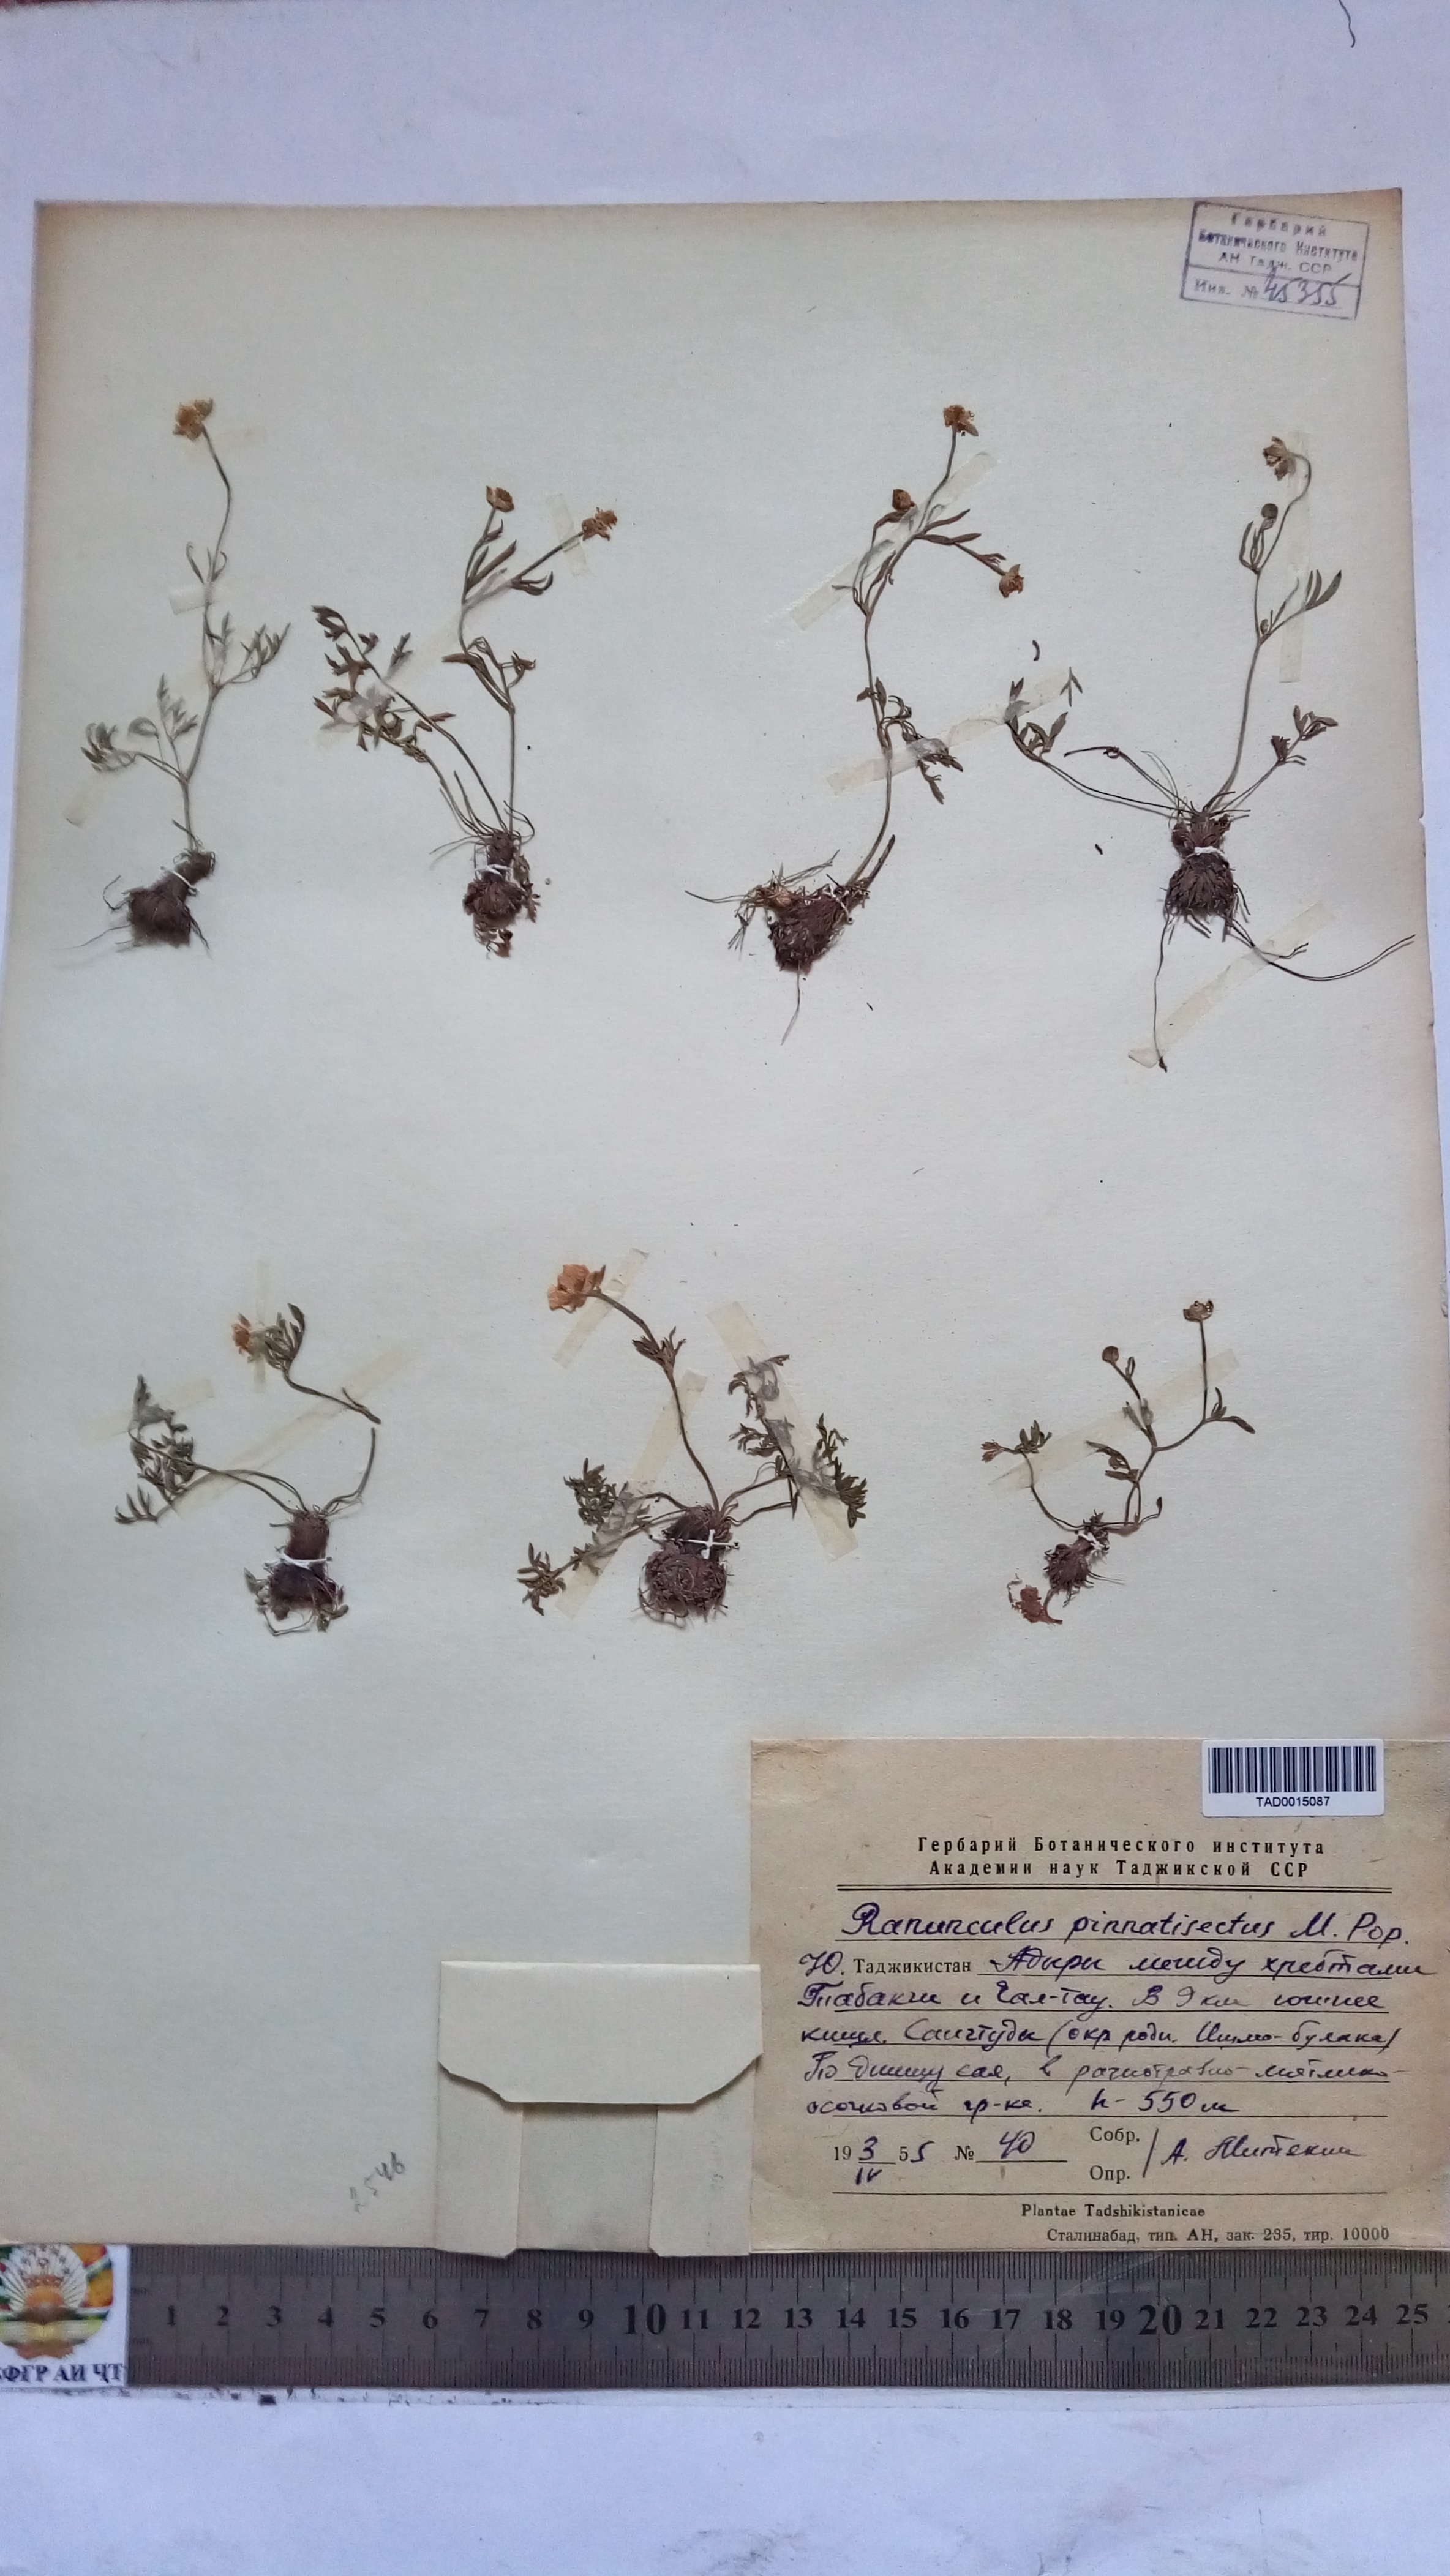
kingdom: Plantae
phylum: Tracheophyta
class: Magnoliopsida
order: Ranunculales
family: Ranunculaceae
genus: Ranunculus
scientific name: Ranunculus pinnatisectus
